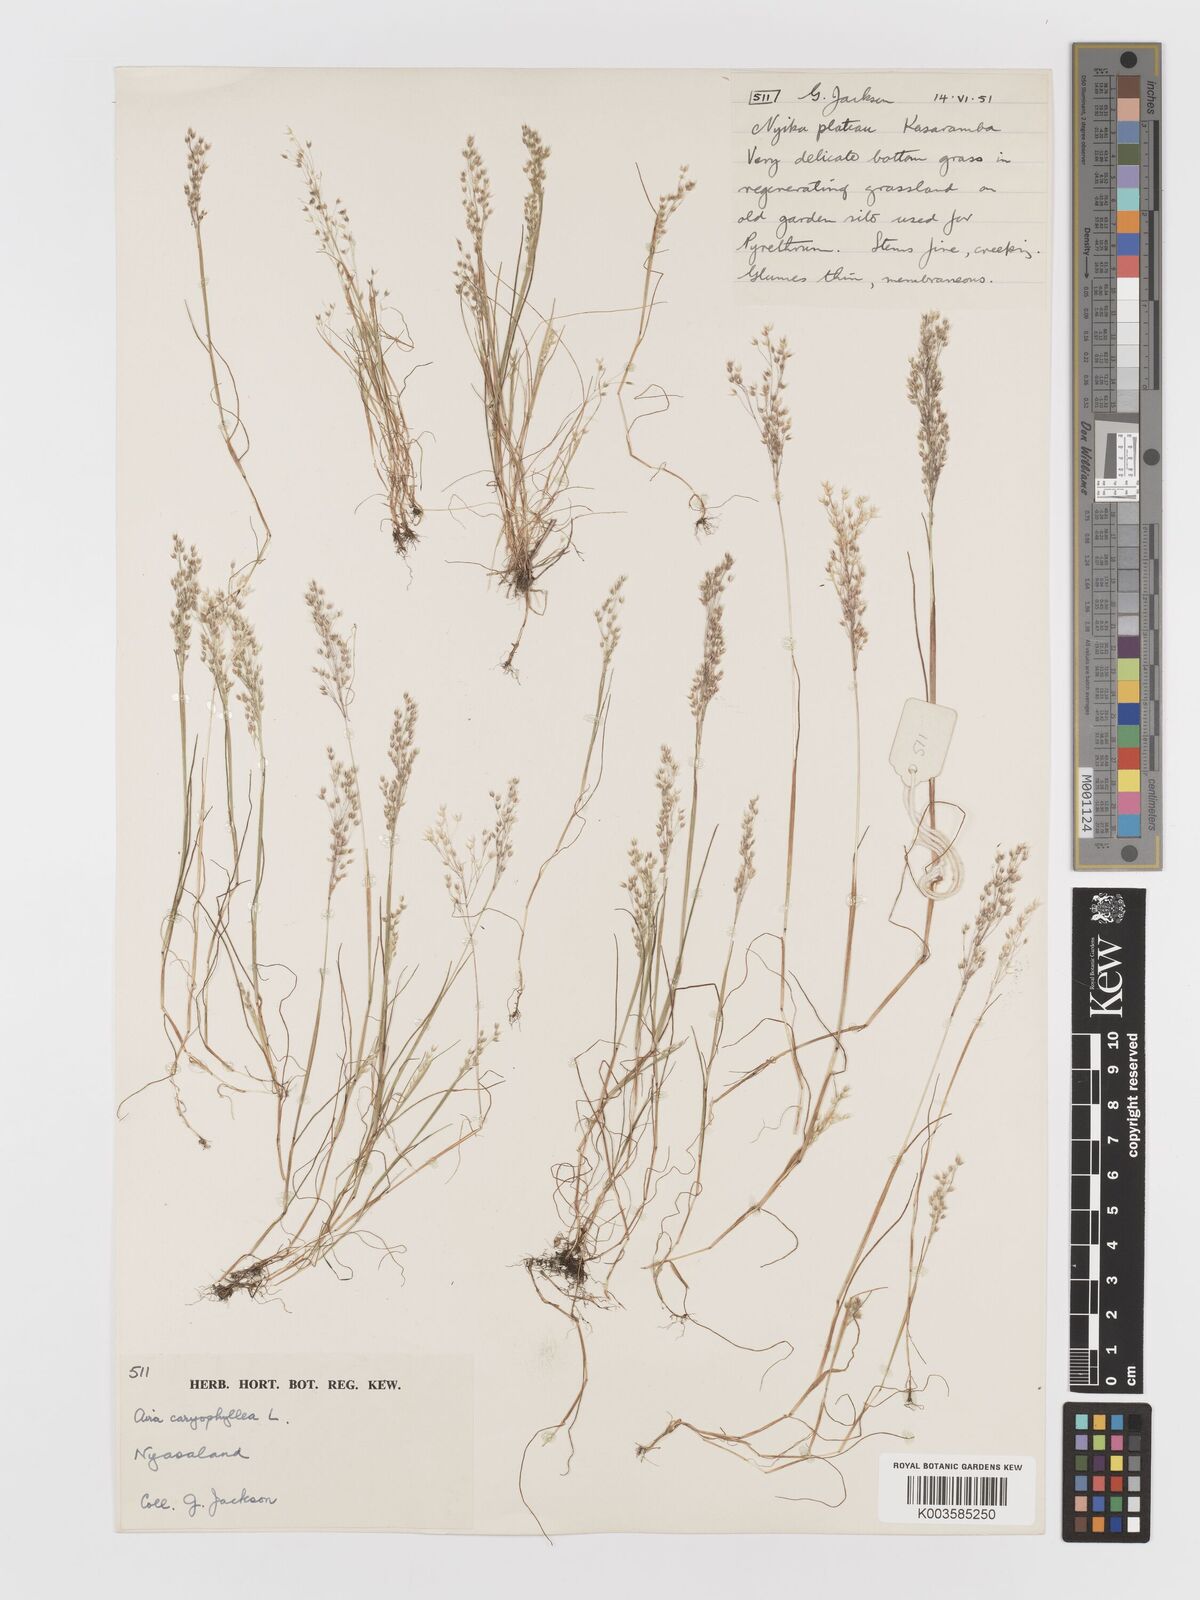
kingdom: Plantae
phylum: Tracheophyta
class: Liliopsida
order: Poales
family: Poaceae
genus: Aira
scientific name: Aira caryophyllea
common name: Silver hairgrass
